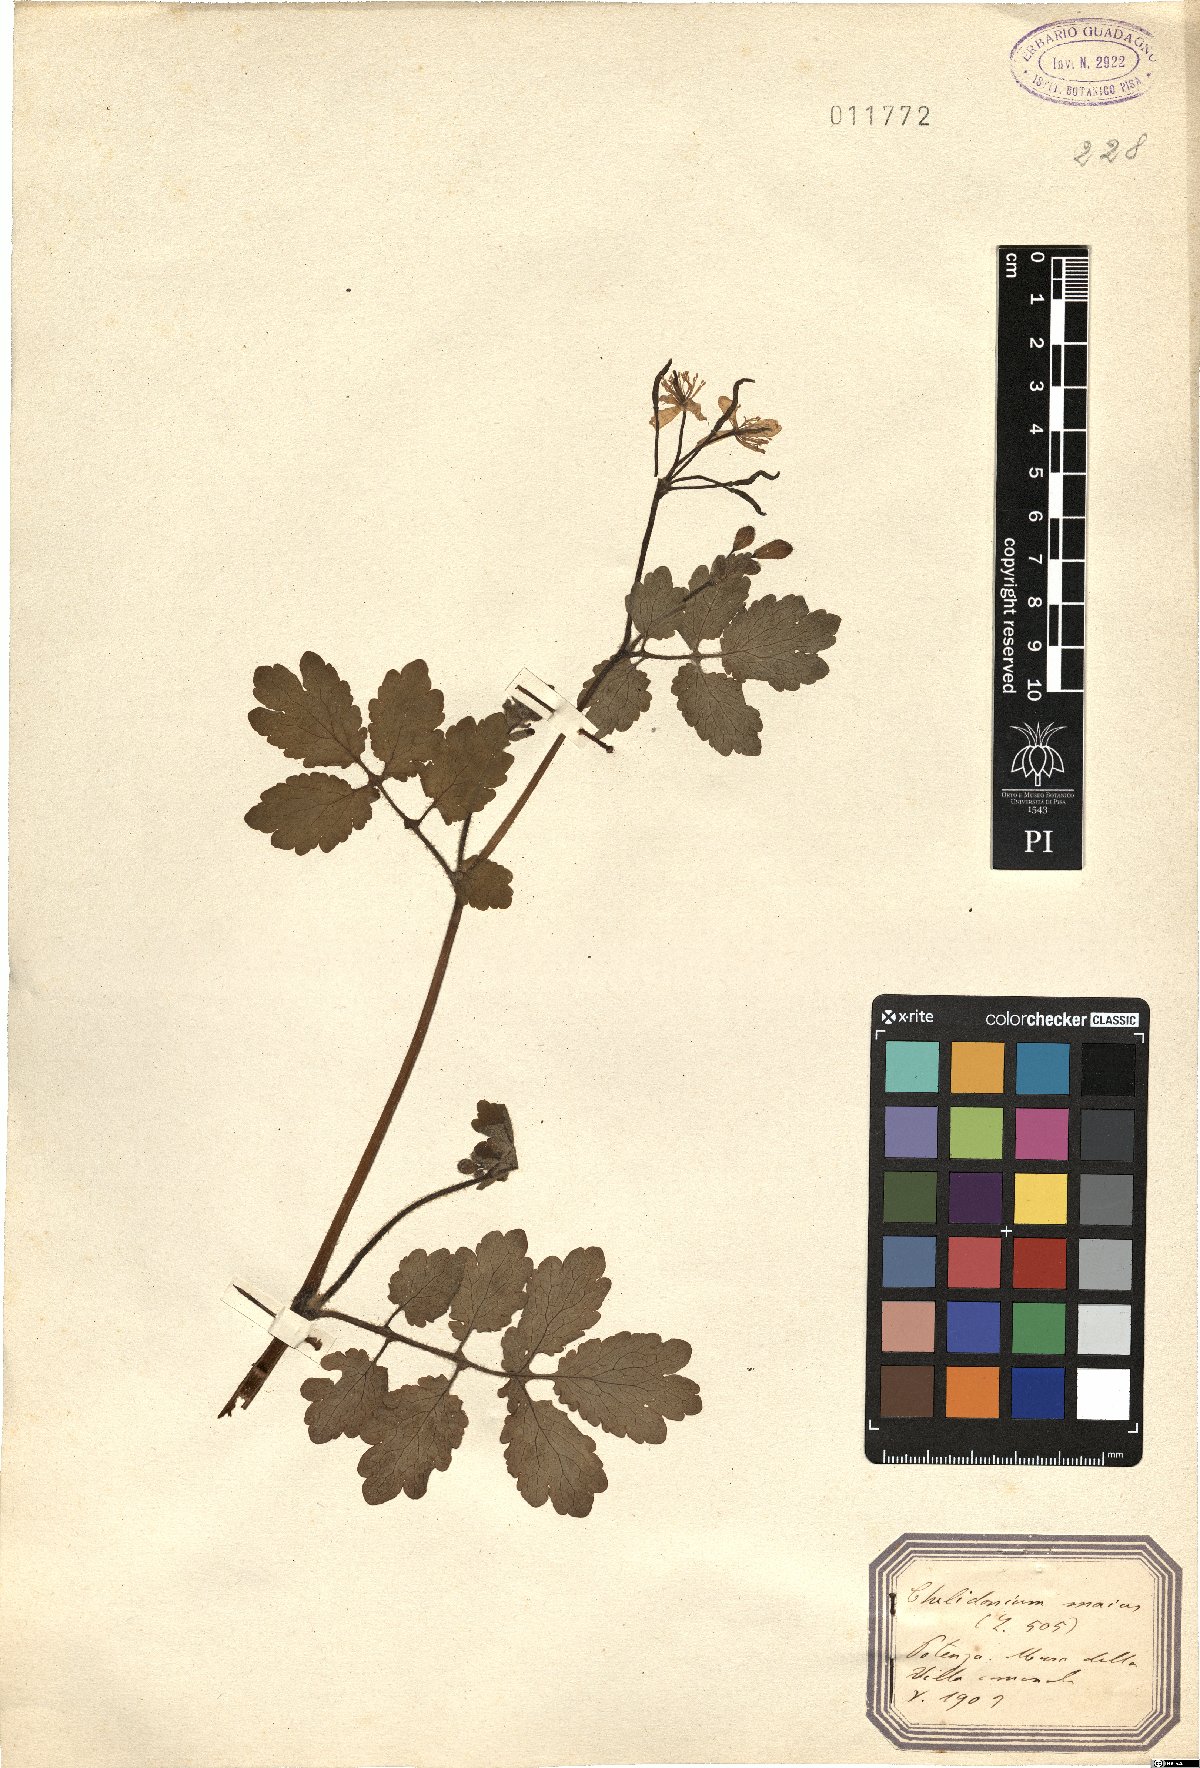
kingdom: Plantae
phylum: Tracheophyta
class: Magnoliopsida
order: Ranunculales
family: Papaveraceae
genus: Chelidonium
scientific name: Chelidonium majus
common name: Greater celandine
